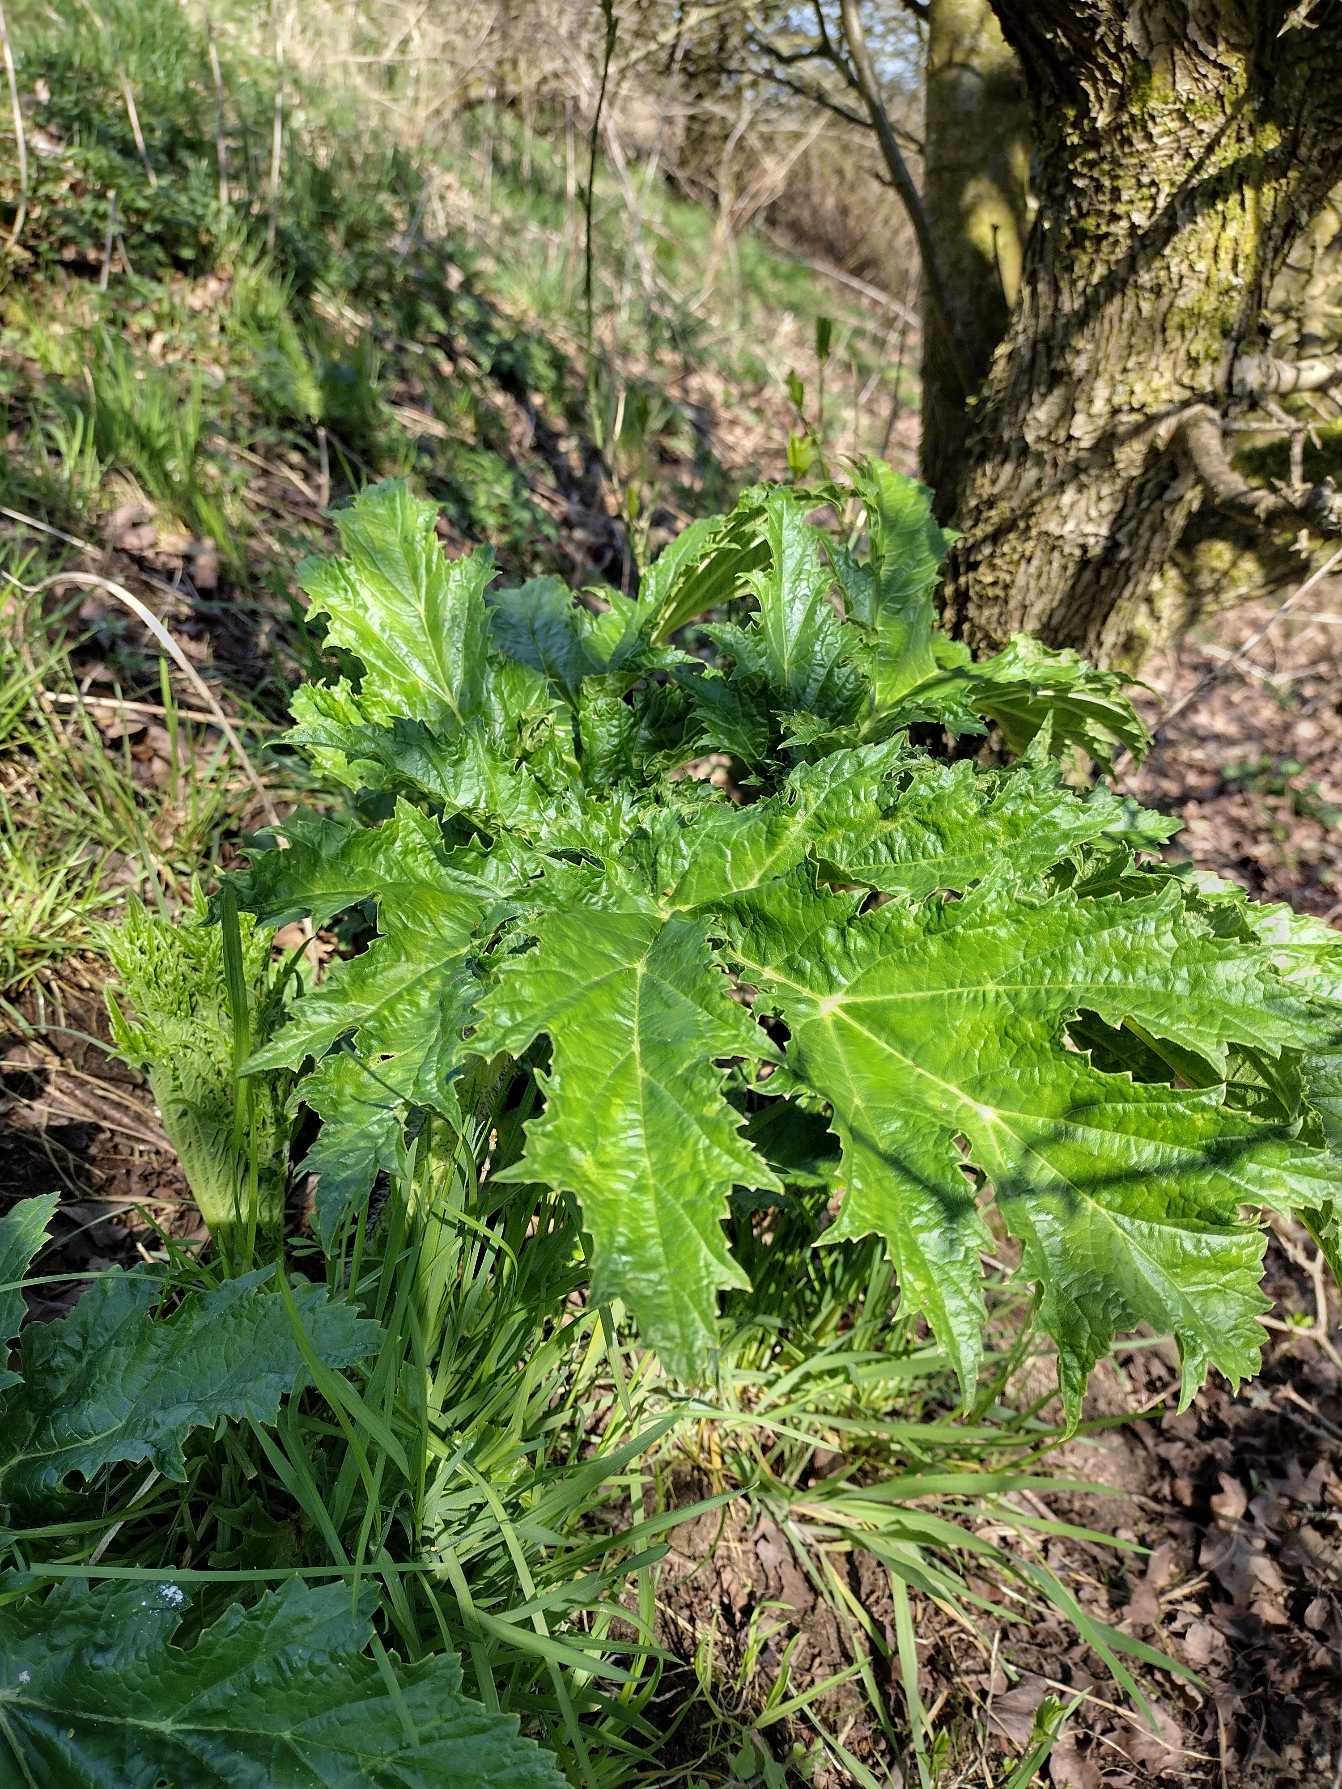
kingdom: Plantae
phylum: Tracheophyta
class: Magnoliopsida
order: Apiales
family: Apiaceae
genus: Heracleum
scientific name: Heracleum mantegazzianum
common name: Kæmpe-bjørneklo
